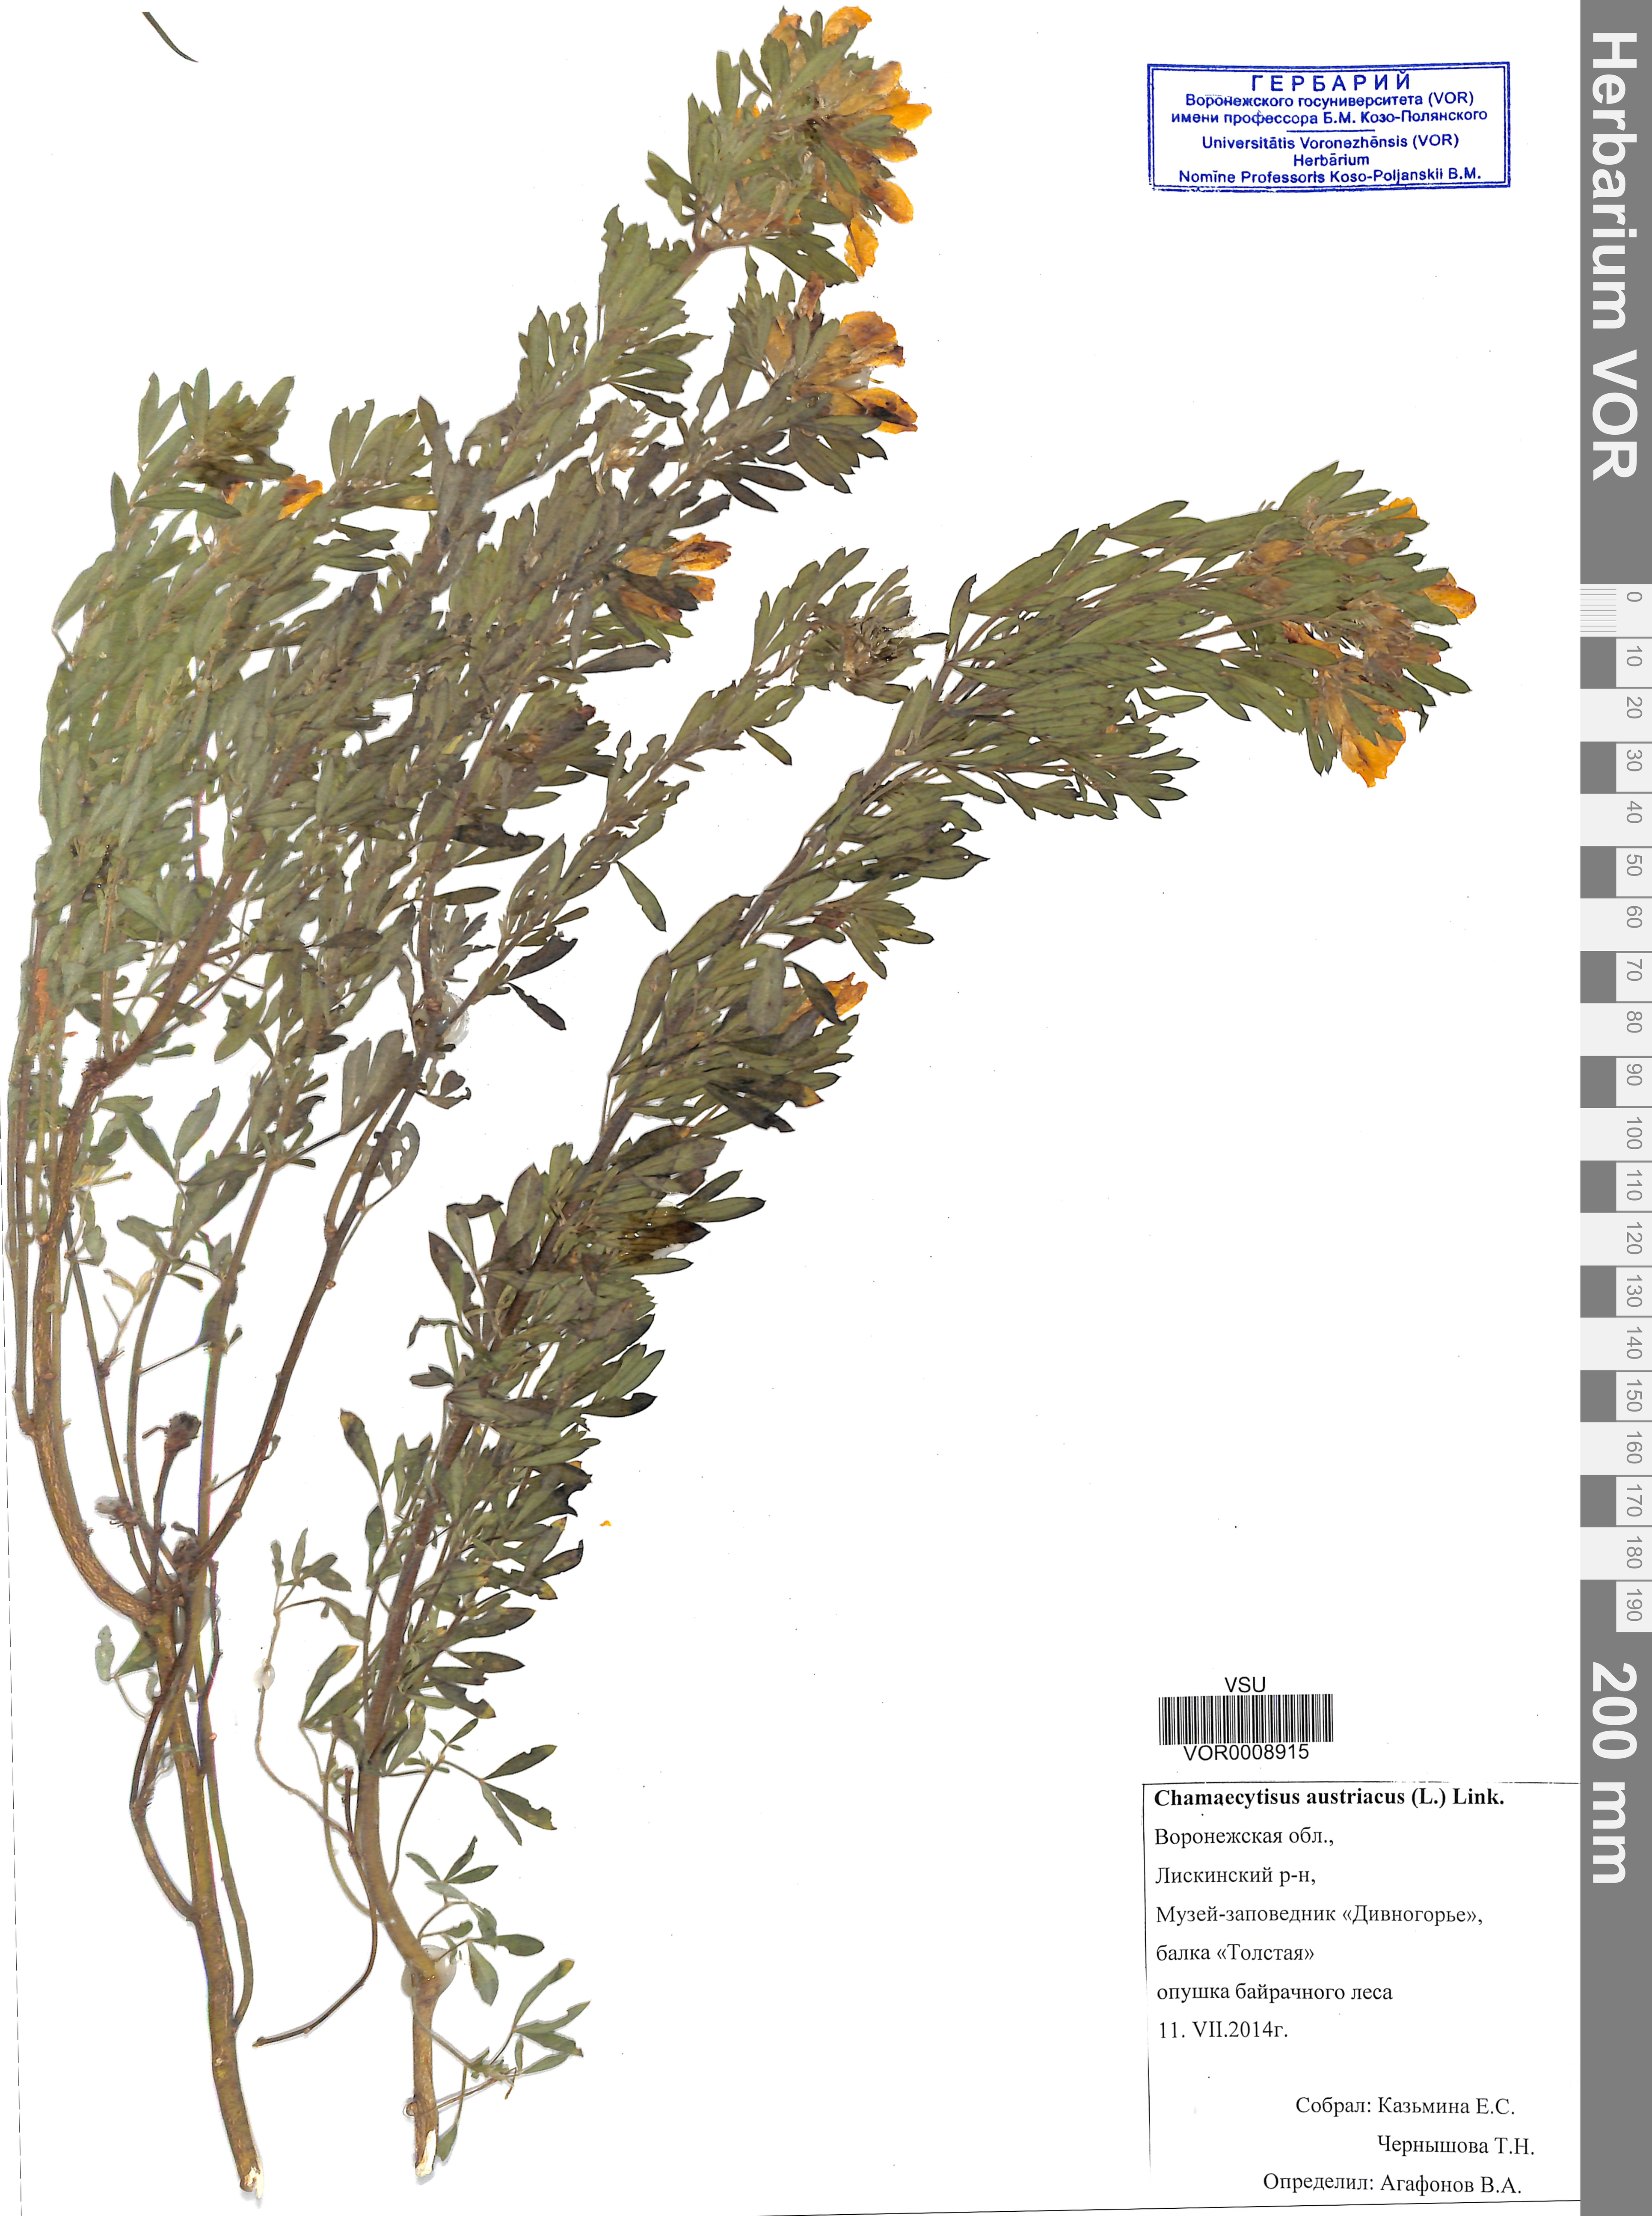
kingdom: Plantae
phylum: Tracheophyta
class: Magnoliopsida
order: Fabales
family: Fabaceae
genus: Chamaecytisus
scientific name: Chamaecytisus austriacus
